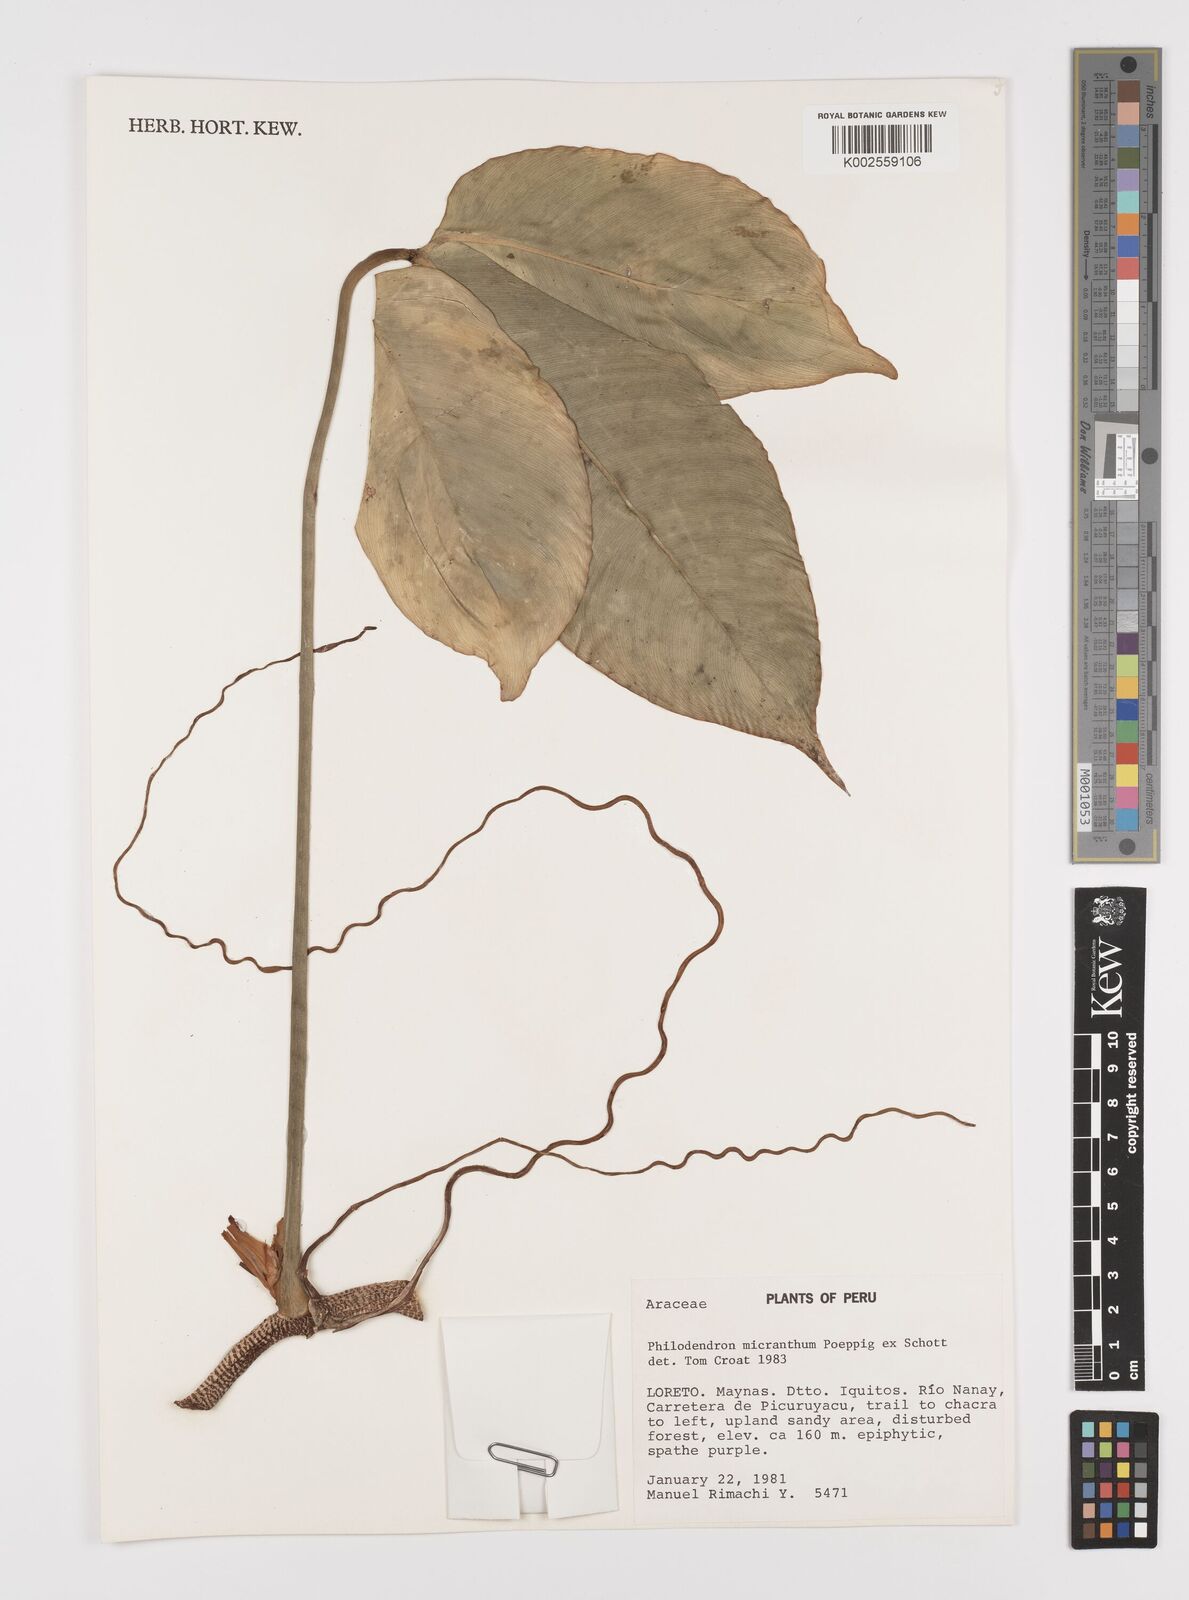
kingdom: Plantae
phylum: Tracheophyta
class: Liliopsida
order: Alismatales
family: Araceae
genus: Philodendron
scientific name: Philodendron micranthum
